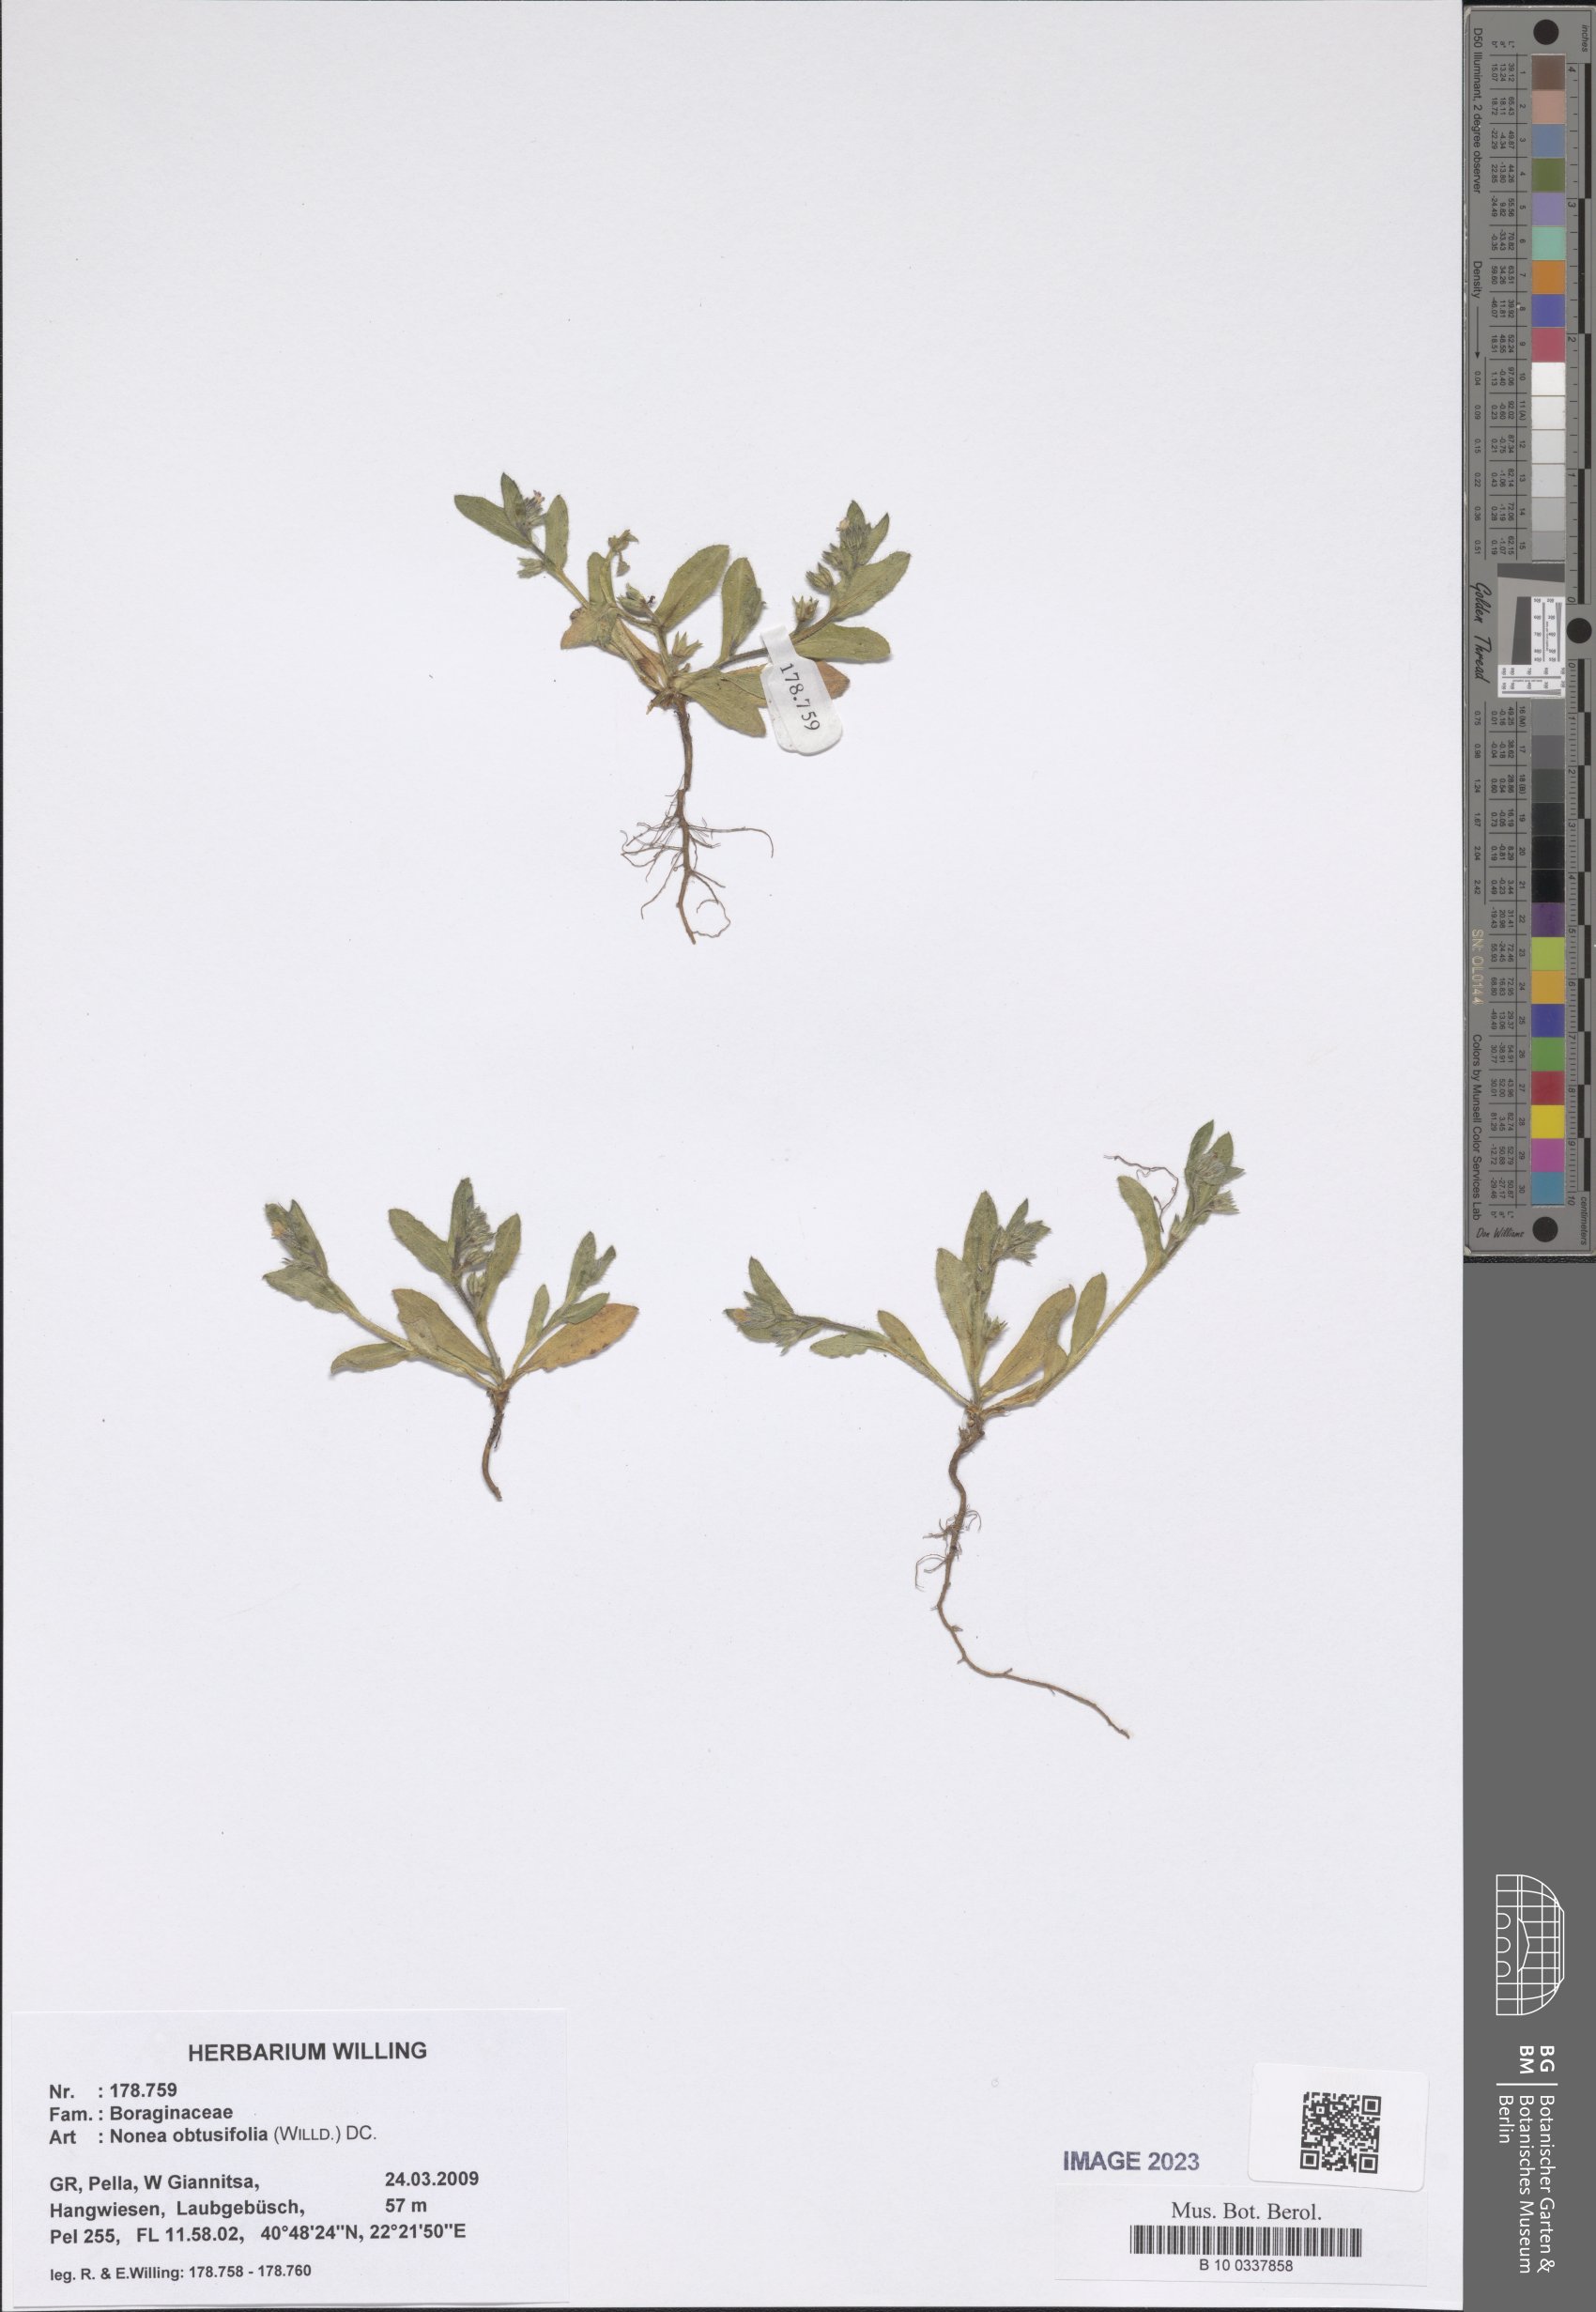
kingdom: Plantae
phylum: Tracheophyta
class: Magnoliopsida
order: Boraginales
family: Boraginaceae
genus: Melanortocarya
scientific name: Melanortocarya obtusifolia
